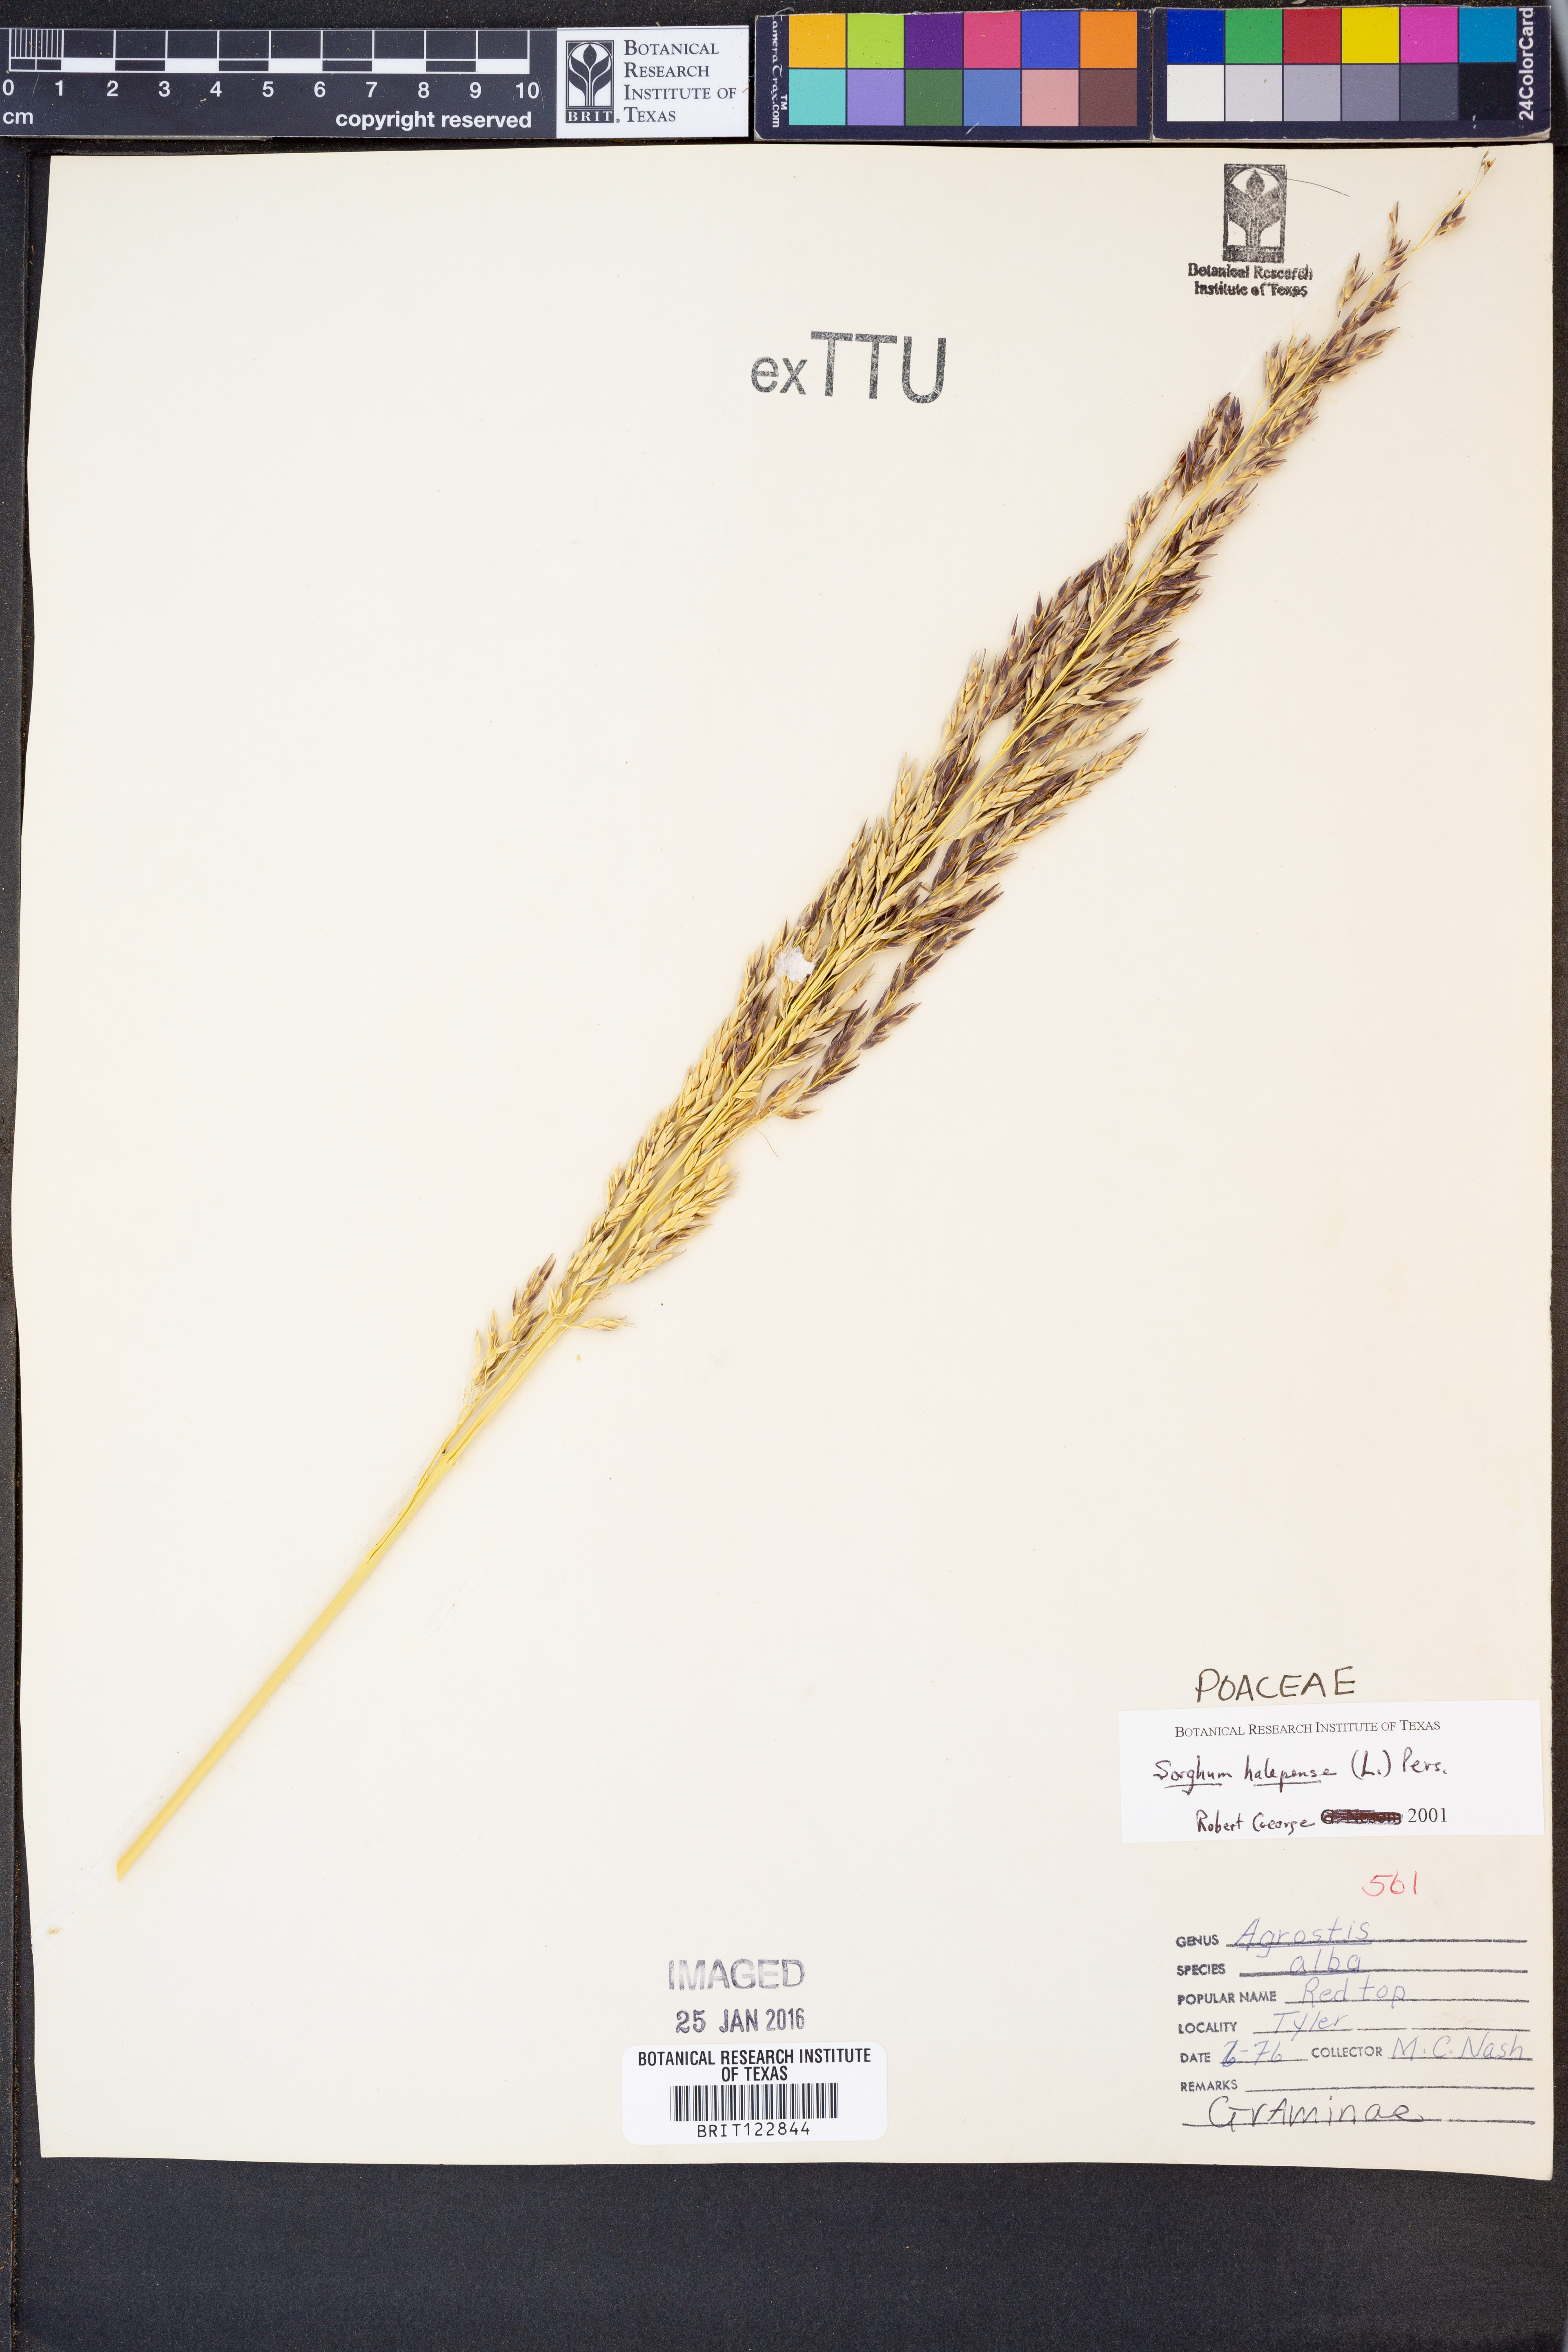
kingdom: Plantae
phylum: Tracheophyta
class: Liliopsida
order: Poales
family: Poaceae
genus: Sorghum
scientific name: Sorghum halepense
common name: Johnson-grass
